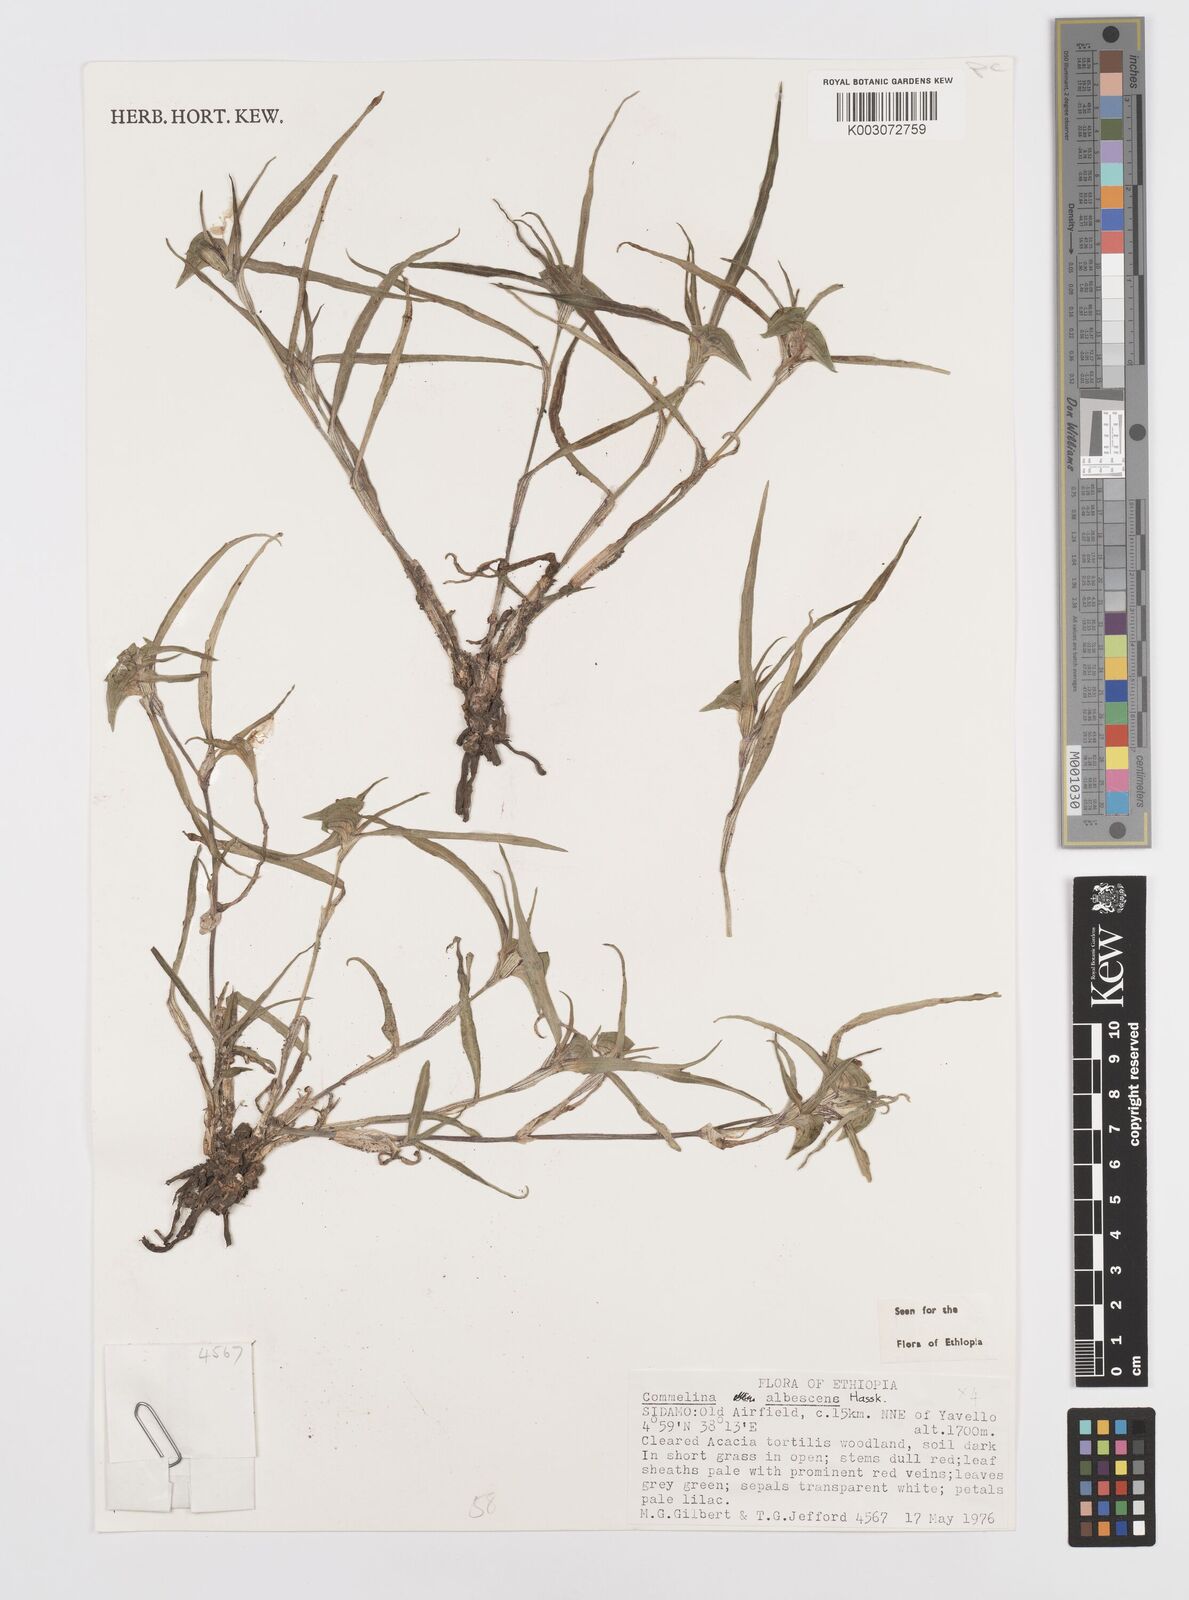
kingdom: Plantae
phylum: Tracheophyta
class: Liliopsida
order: Commelinales
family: Commelinaceae
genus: Commelina
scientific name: Commelina albescens
